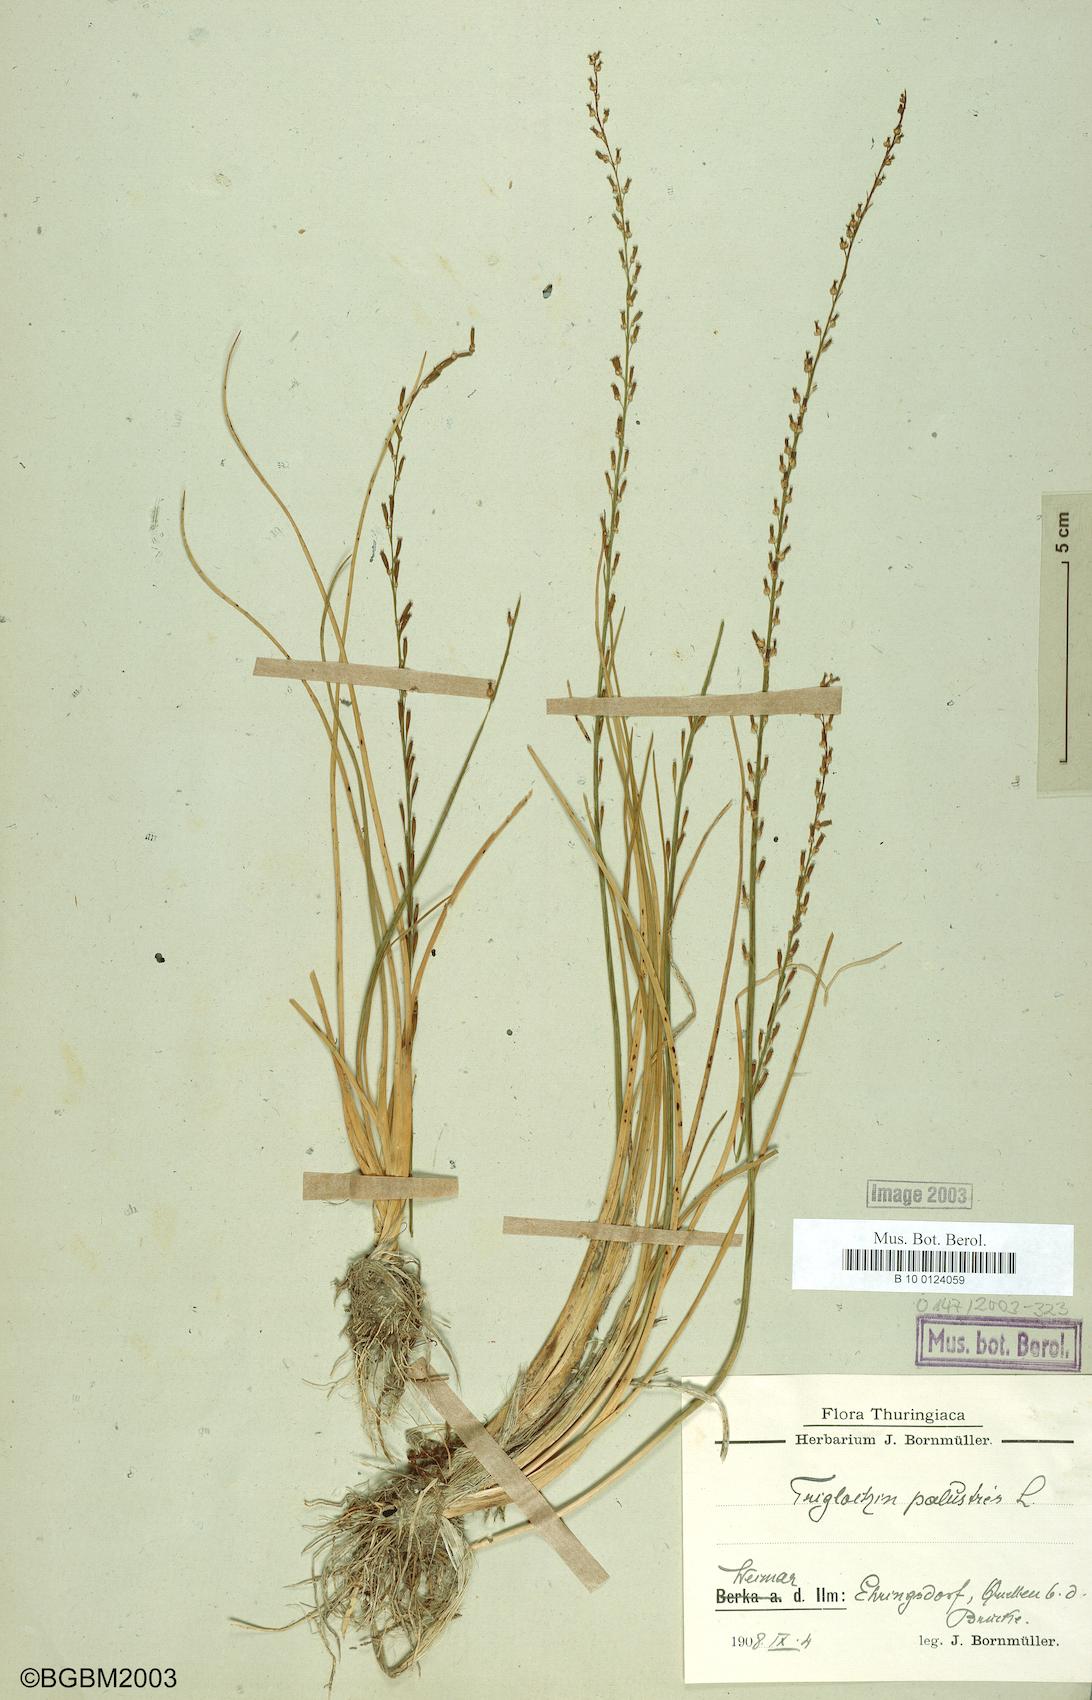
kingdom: Plantae
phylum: Tracheophyta
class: Liliopsida
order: Alismatales
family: Juncaginaceae
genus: Triglochin
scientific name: Triglochin palustris
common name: Marsh arrowgrass
